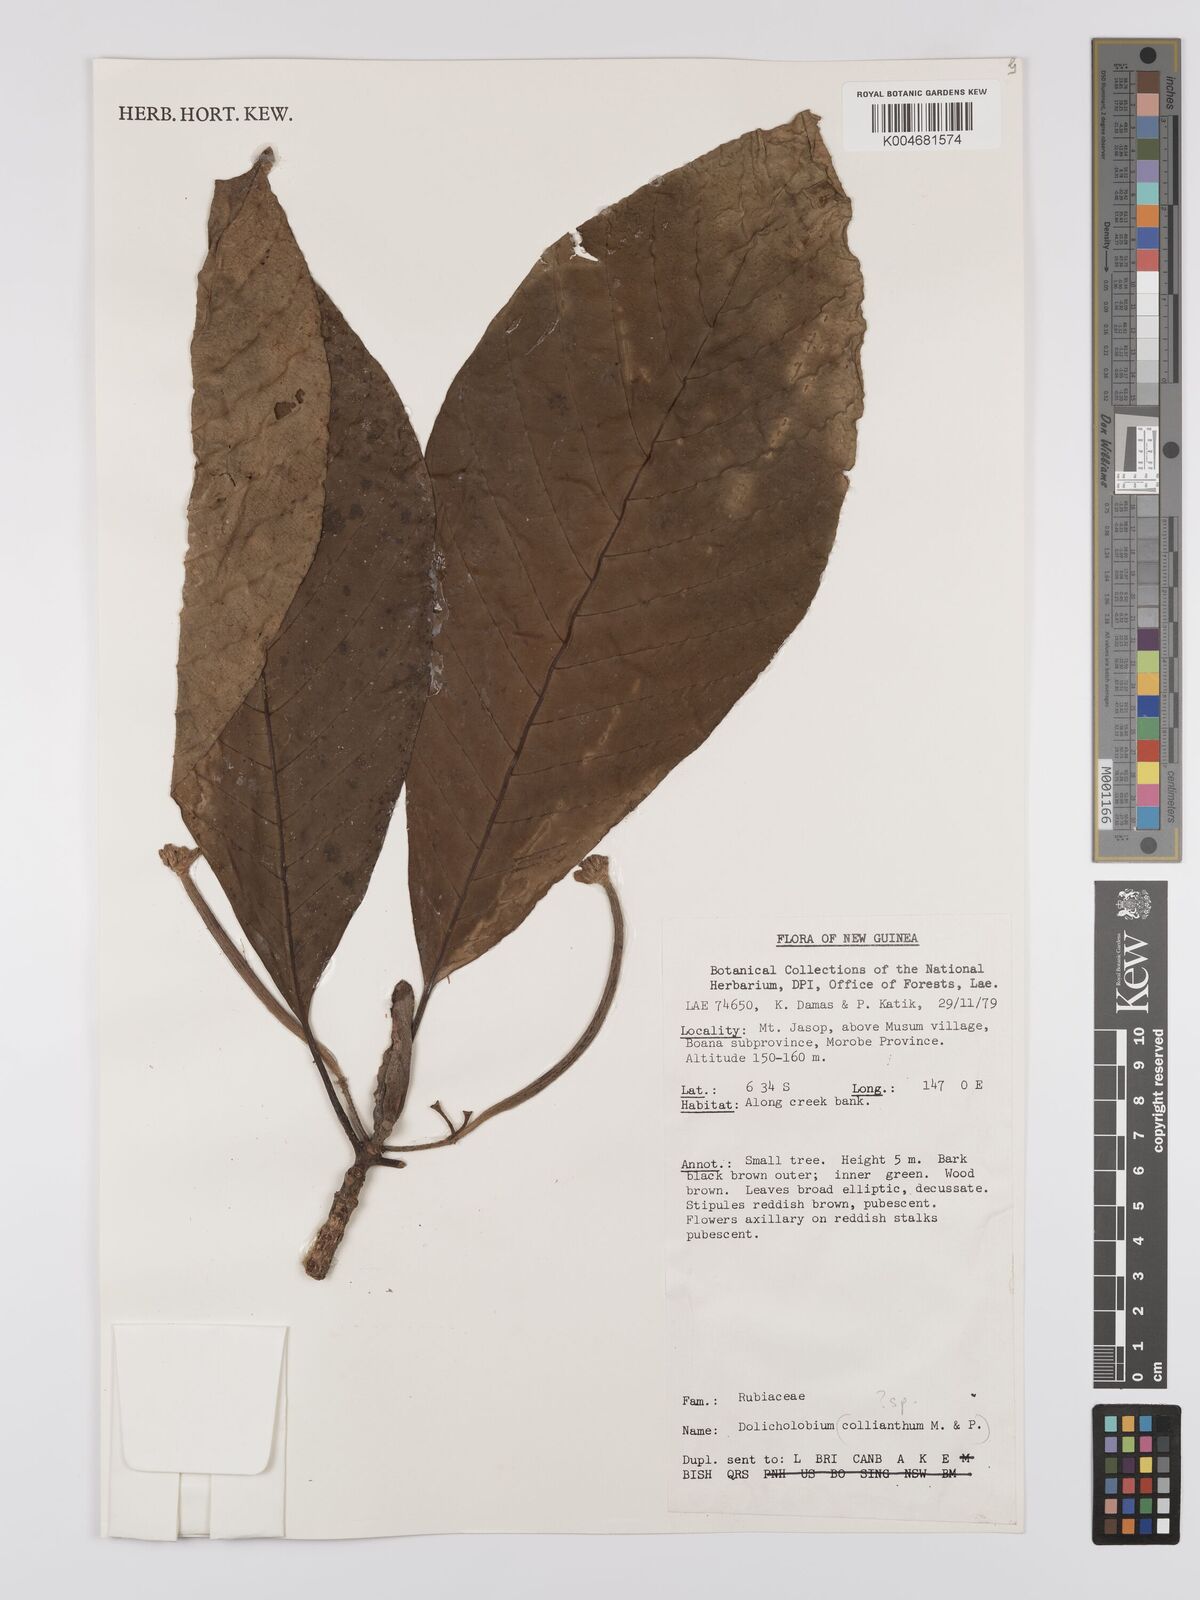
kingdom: Plantae
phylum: Tracheophyta
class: Magnoliopsida
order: Gentianales
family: Rubiaceae
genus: Dolicholobium
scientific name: Dolicholobium
